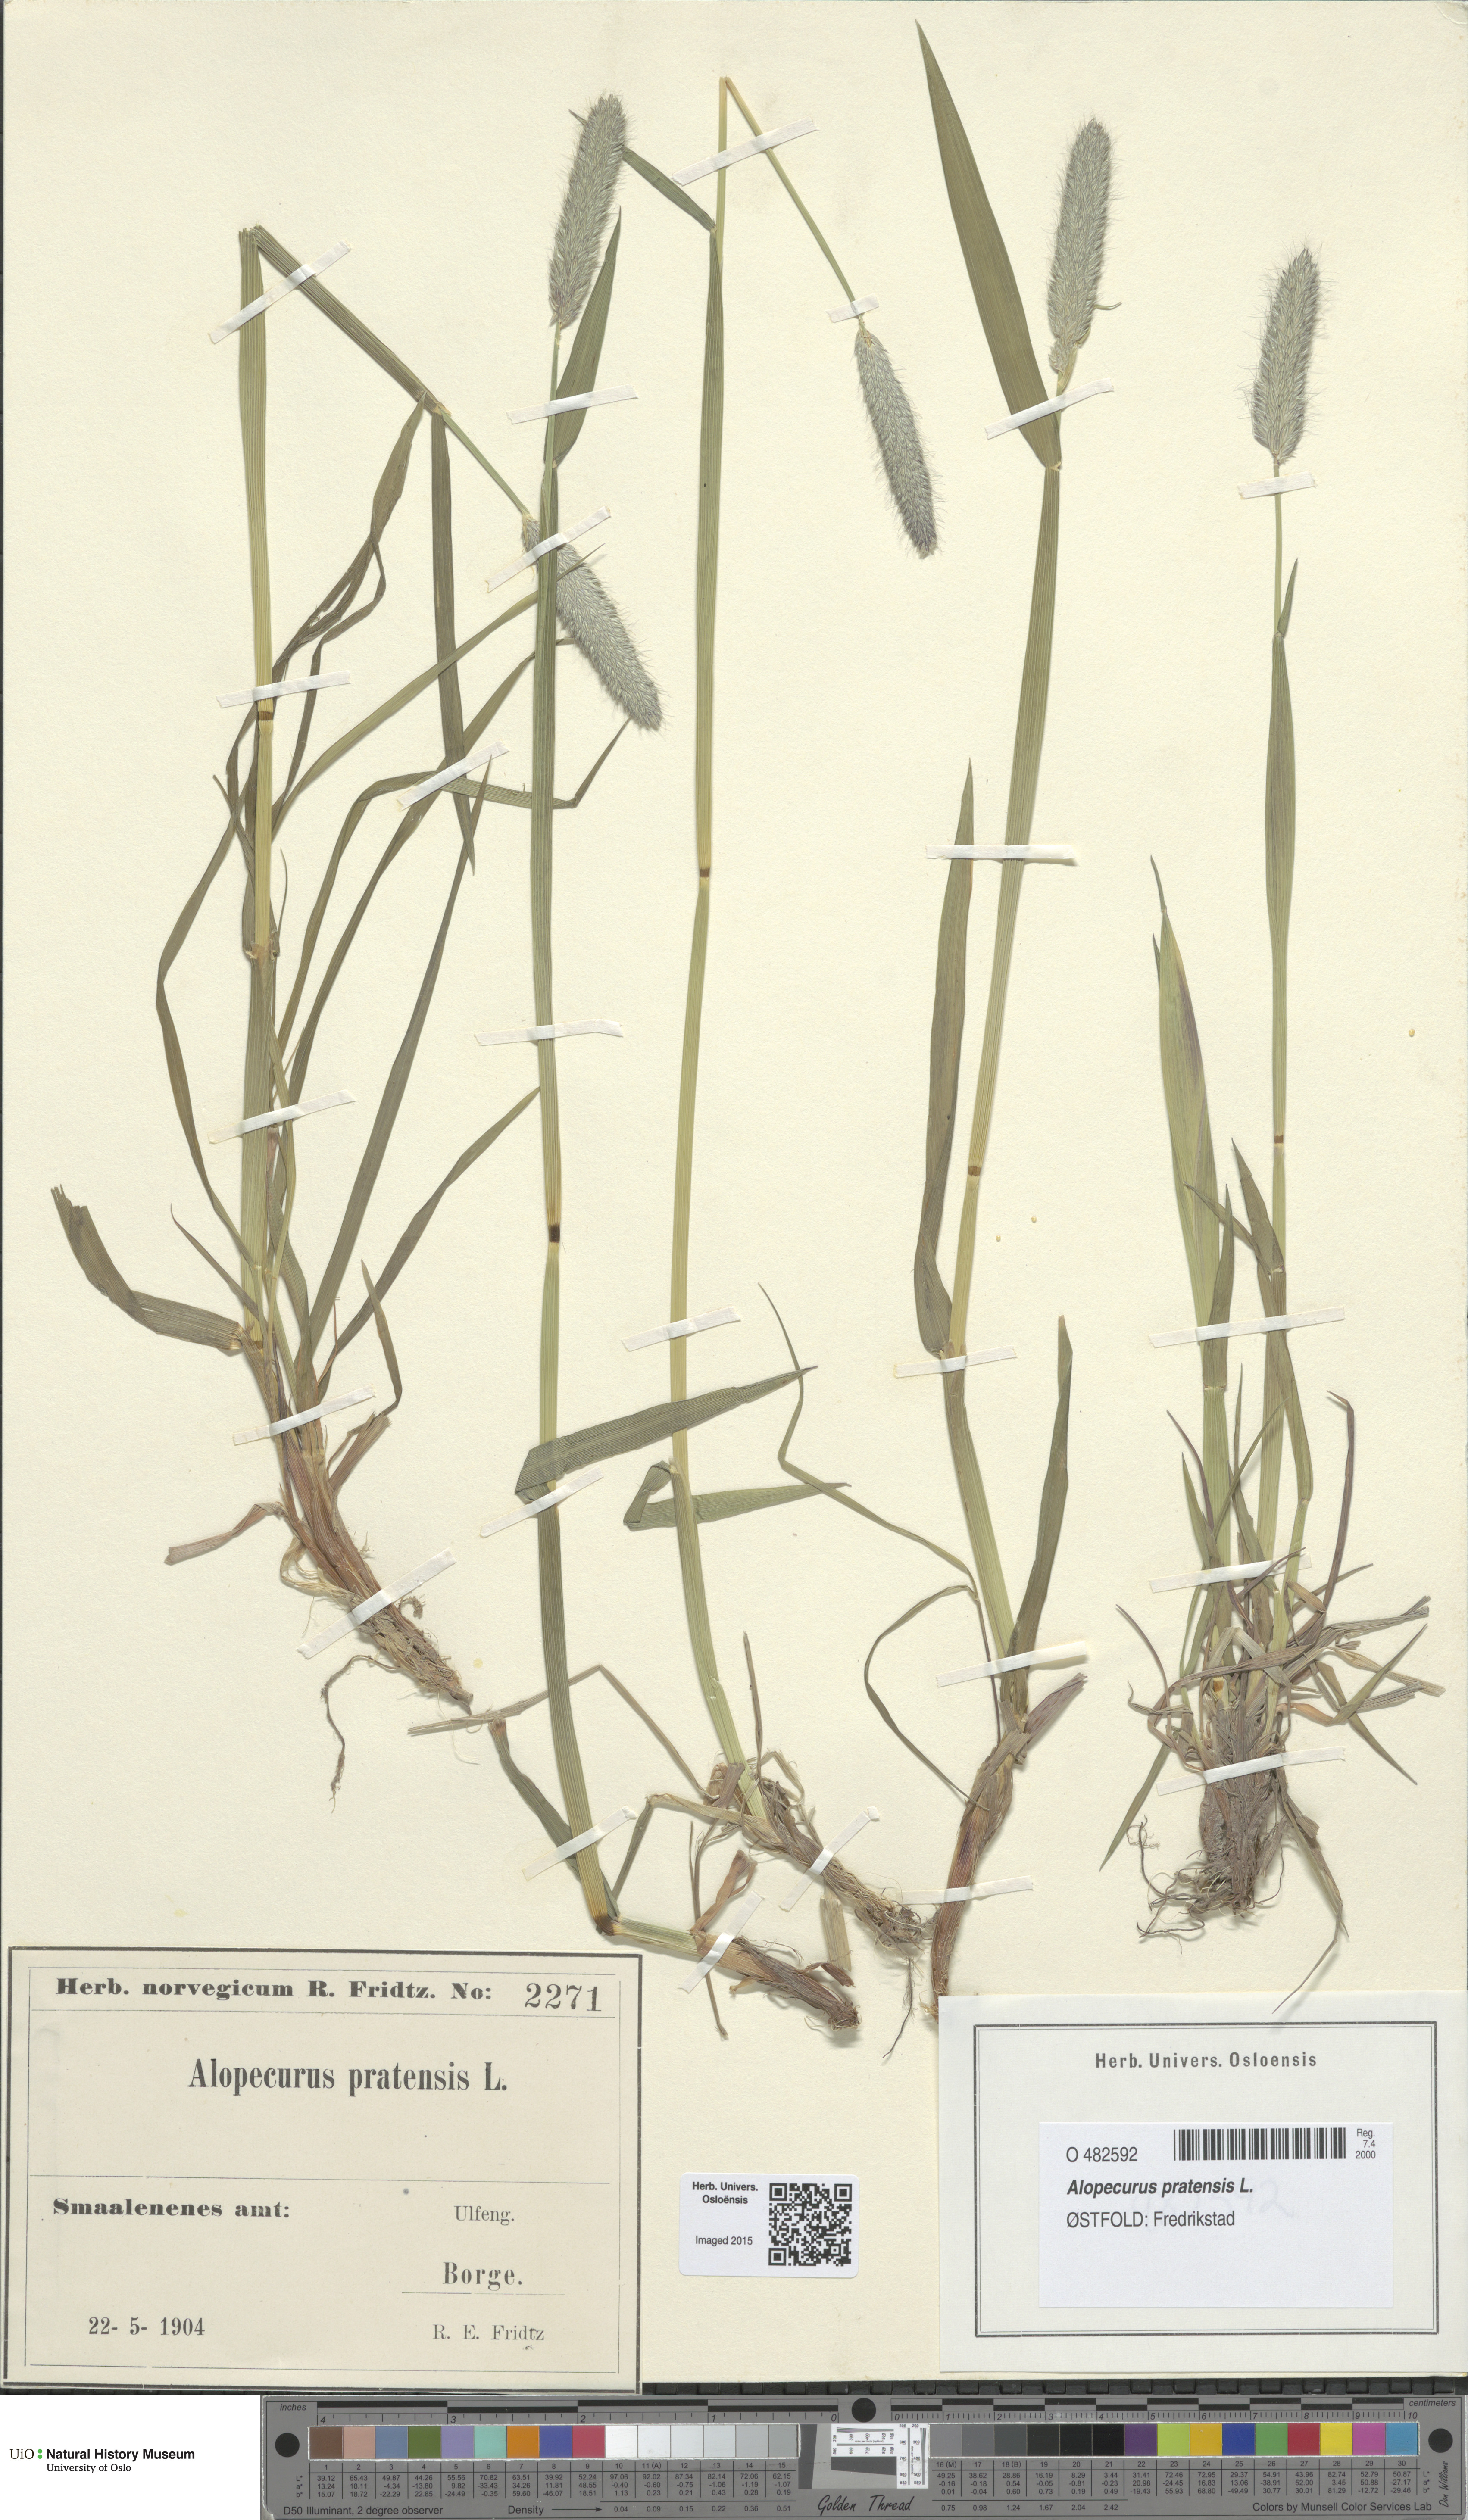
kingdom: Plantae
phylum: Tracheophyta
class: Liliopsida
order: Poales
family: Poaceae
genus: Alopecurus
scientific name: Alopecurus pratensis
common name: Meadow foxtail
